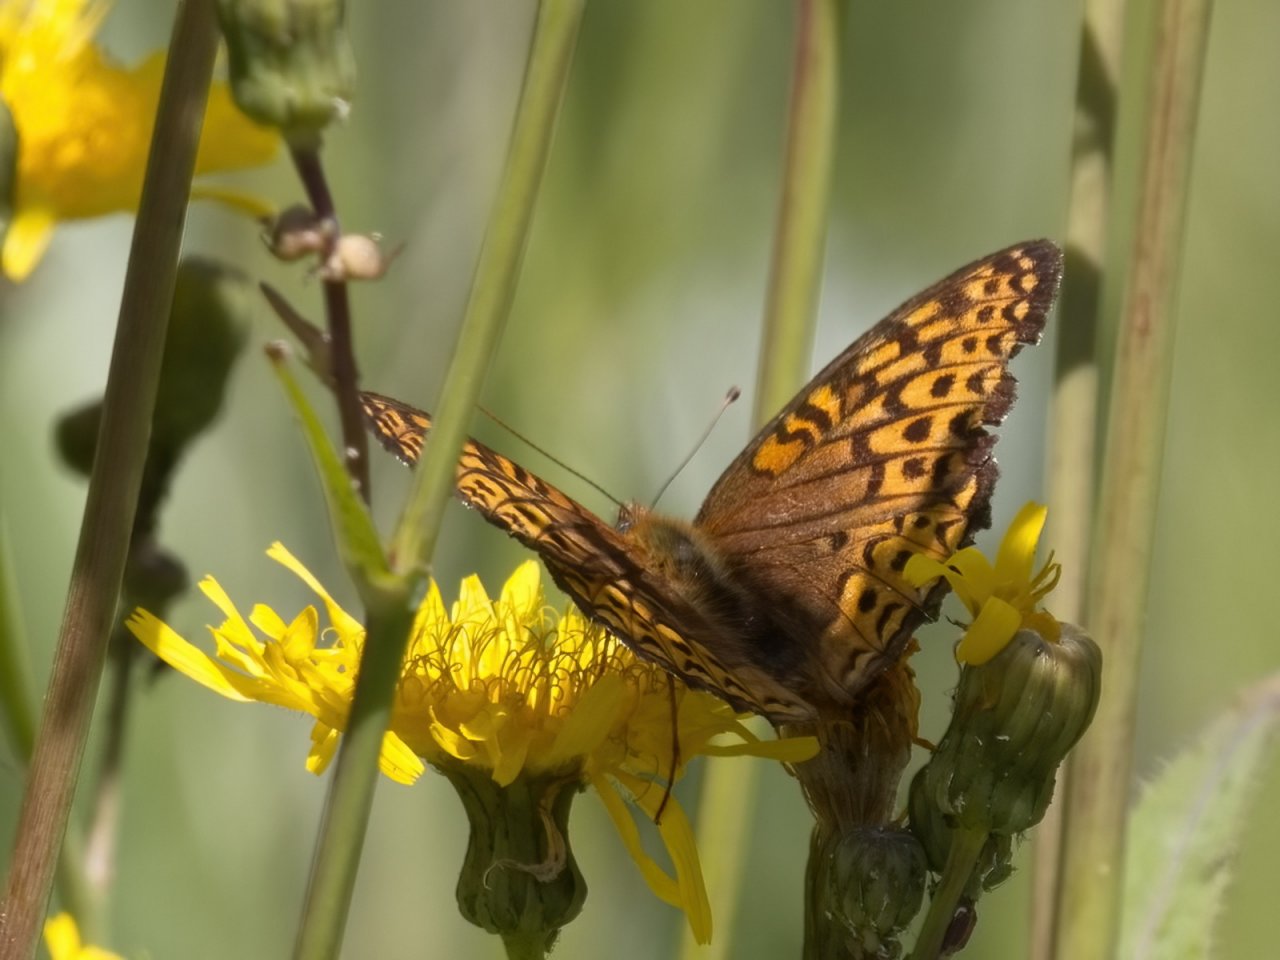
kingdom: Animalia
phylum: Arthropoda
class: Insecta
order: Lepidoptera
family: Nymphalidae
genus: Speyeria
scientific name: Speyeria atlantis
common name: Atlantis Fritillary
